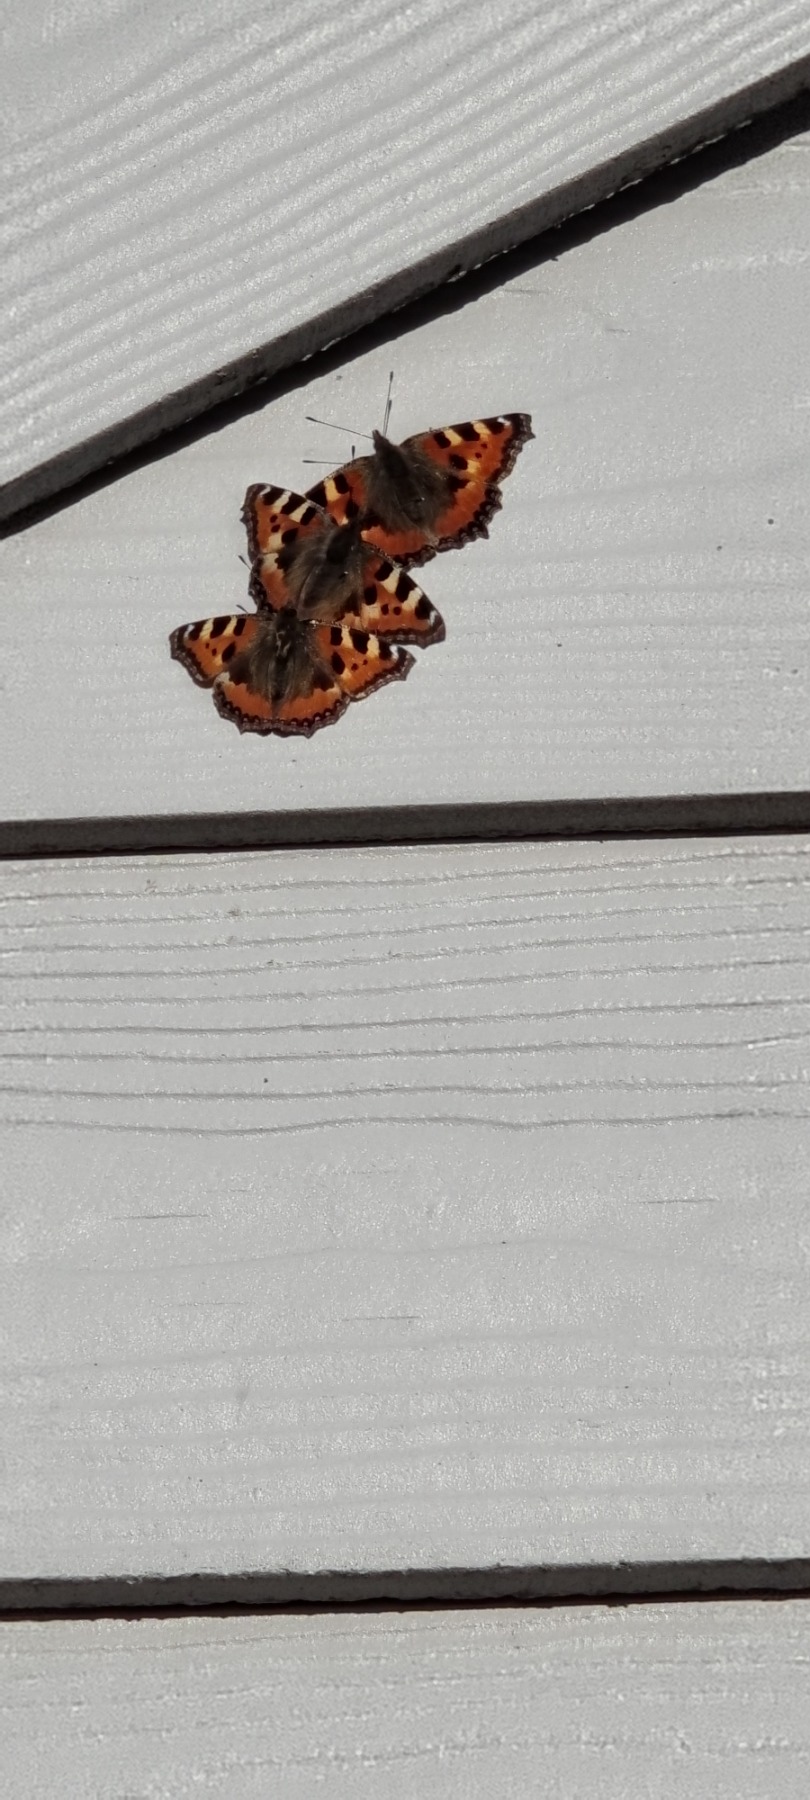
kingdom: Animalia
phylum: Arthropoda
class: Insecta
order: Lepidoptera
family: Nymphalidae
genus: Aglais
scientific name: Aglais urticae
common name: Nældens takvinge
